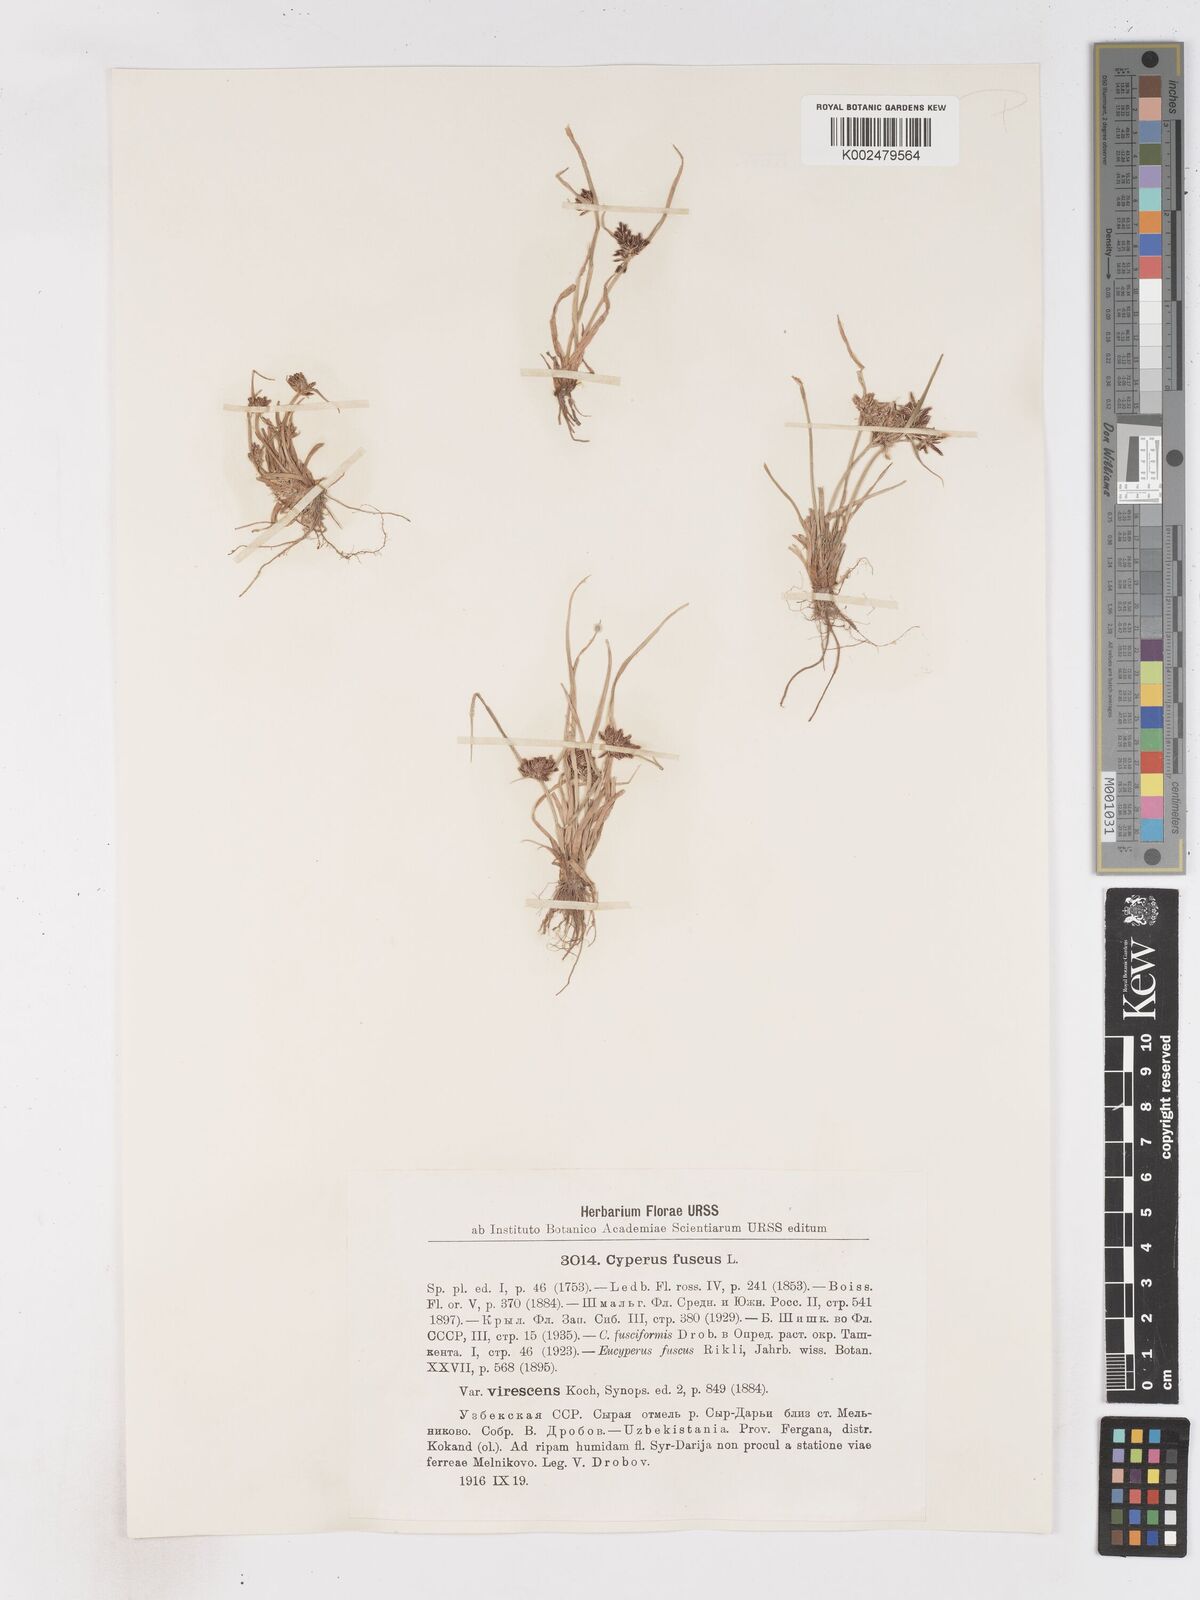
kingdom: Plantae
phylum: Tracheophyta
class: Liliopsida
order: Poales
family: Cyperaceae
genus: Cyperus
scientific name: Cyperus fuscus
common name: Brown galingale
